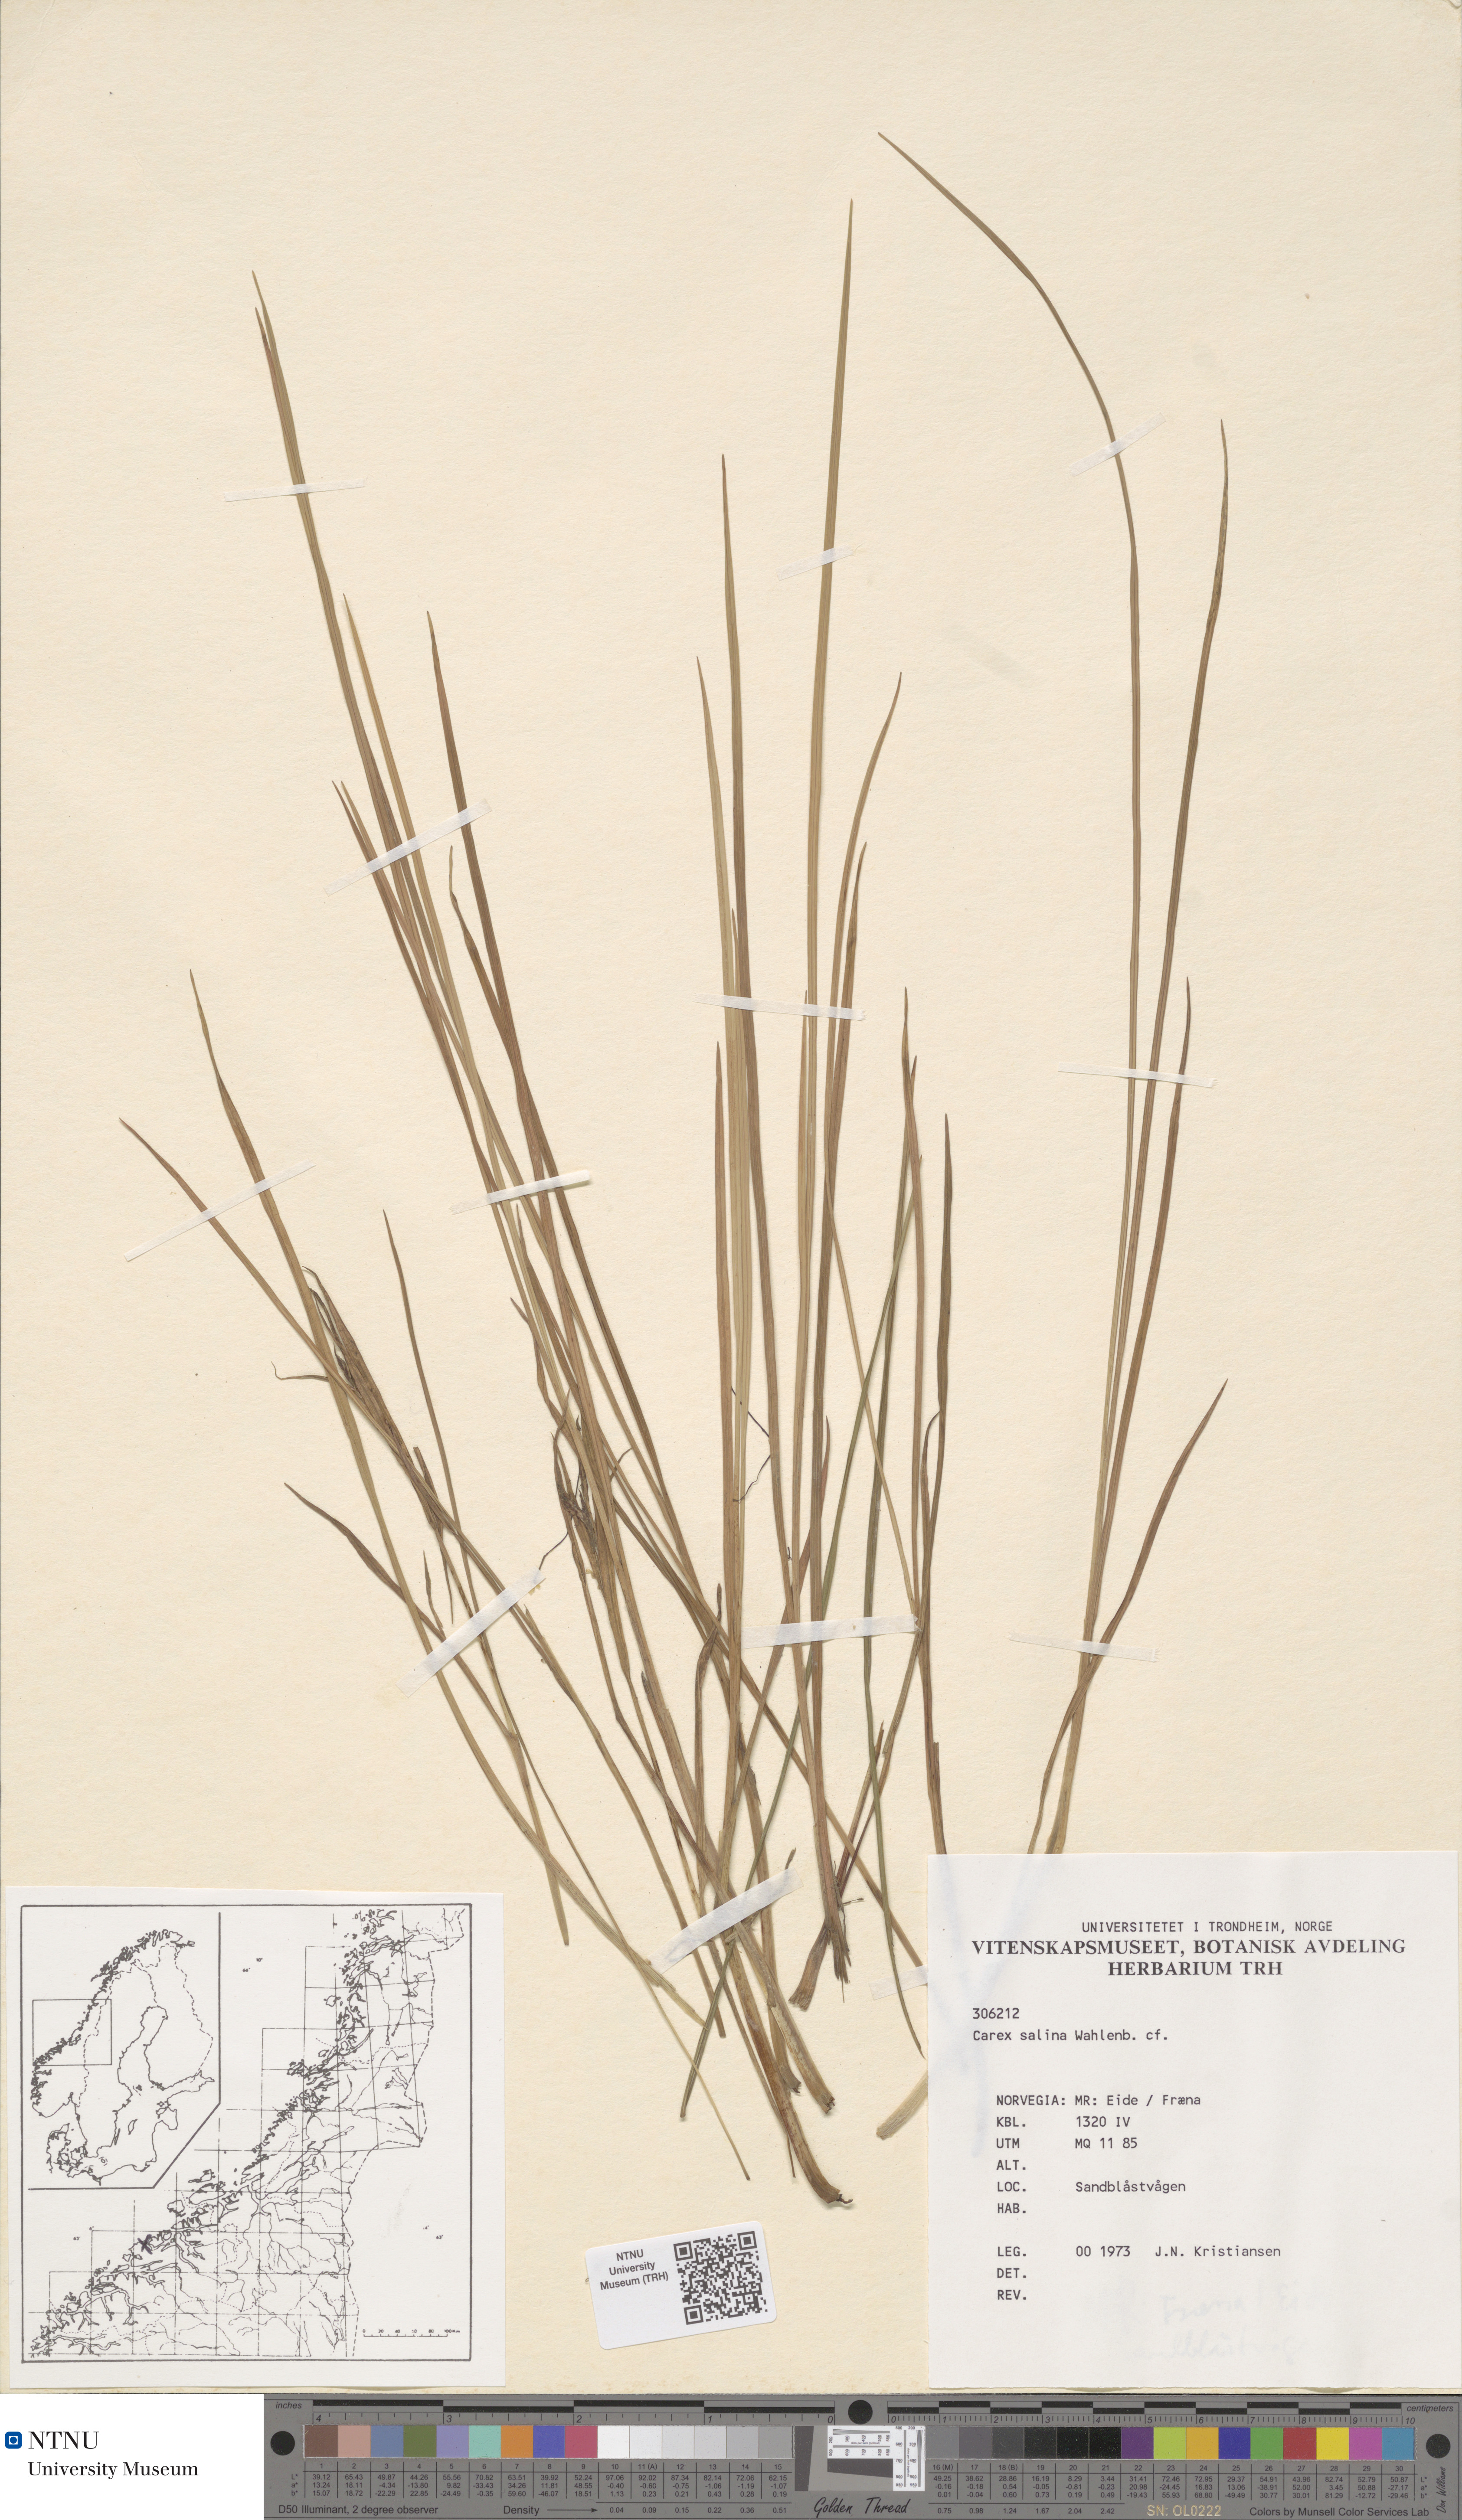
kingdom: Plantae
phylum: Tracheophyta
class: Liliopsida
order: Poales
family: Cyperaceae
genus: Carex
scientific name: Carex salina
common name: Saltmarsh sedge
